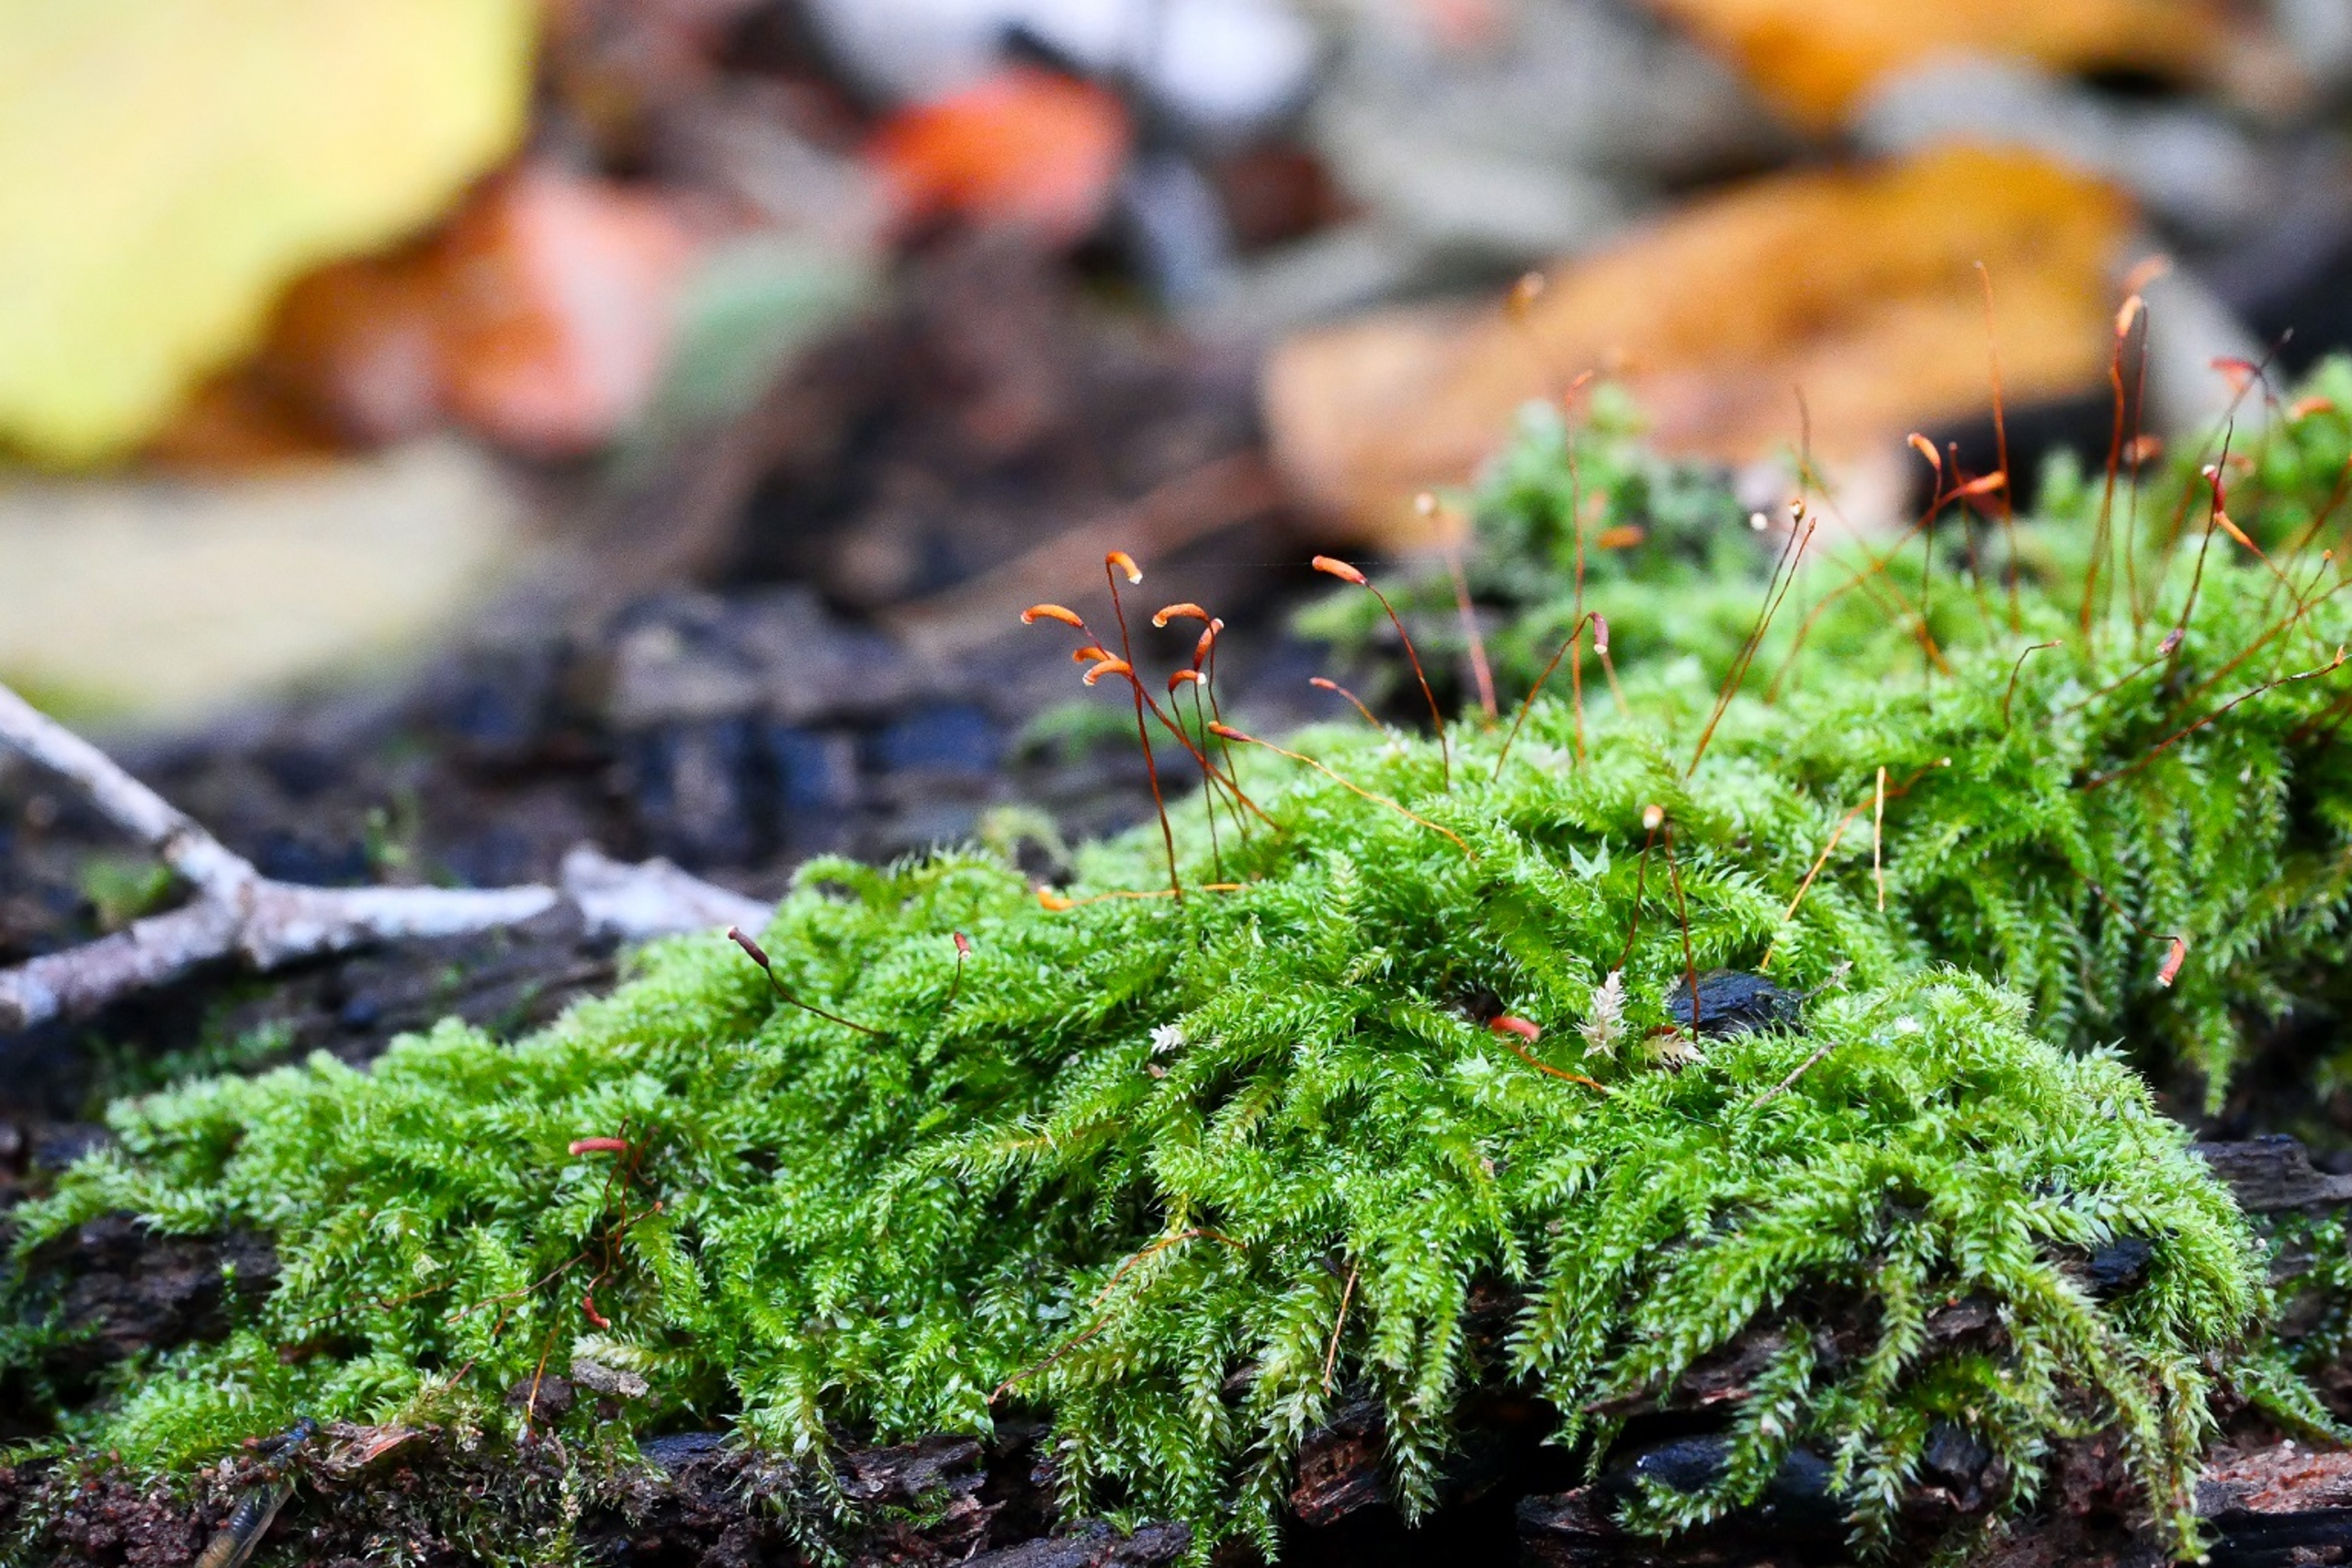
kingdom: Plantae
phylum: Bryophyta
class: Bryopsida
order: Hypnales
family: Plagiotheciaceae
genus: Herzogiella
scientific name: Herzogiella seligeri
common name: Stub-pølsekapsel
